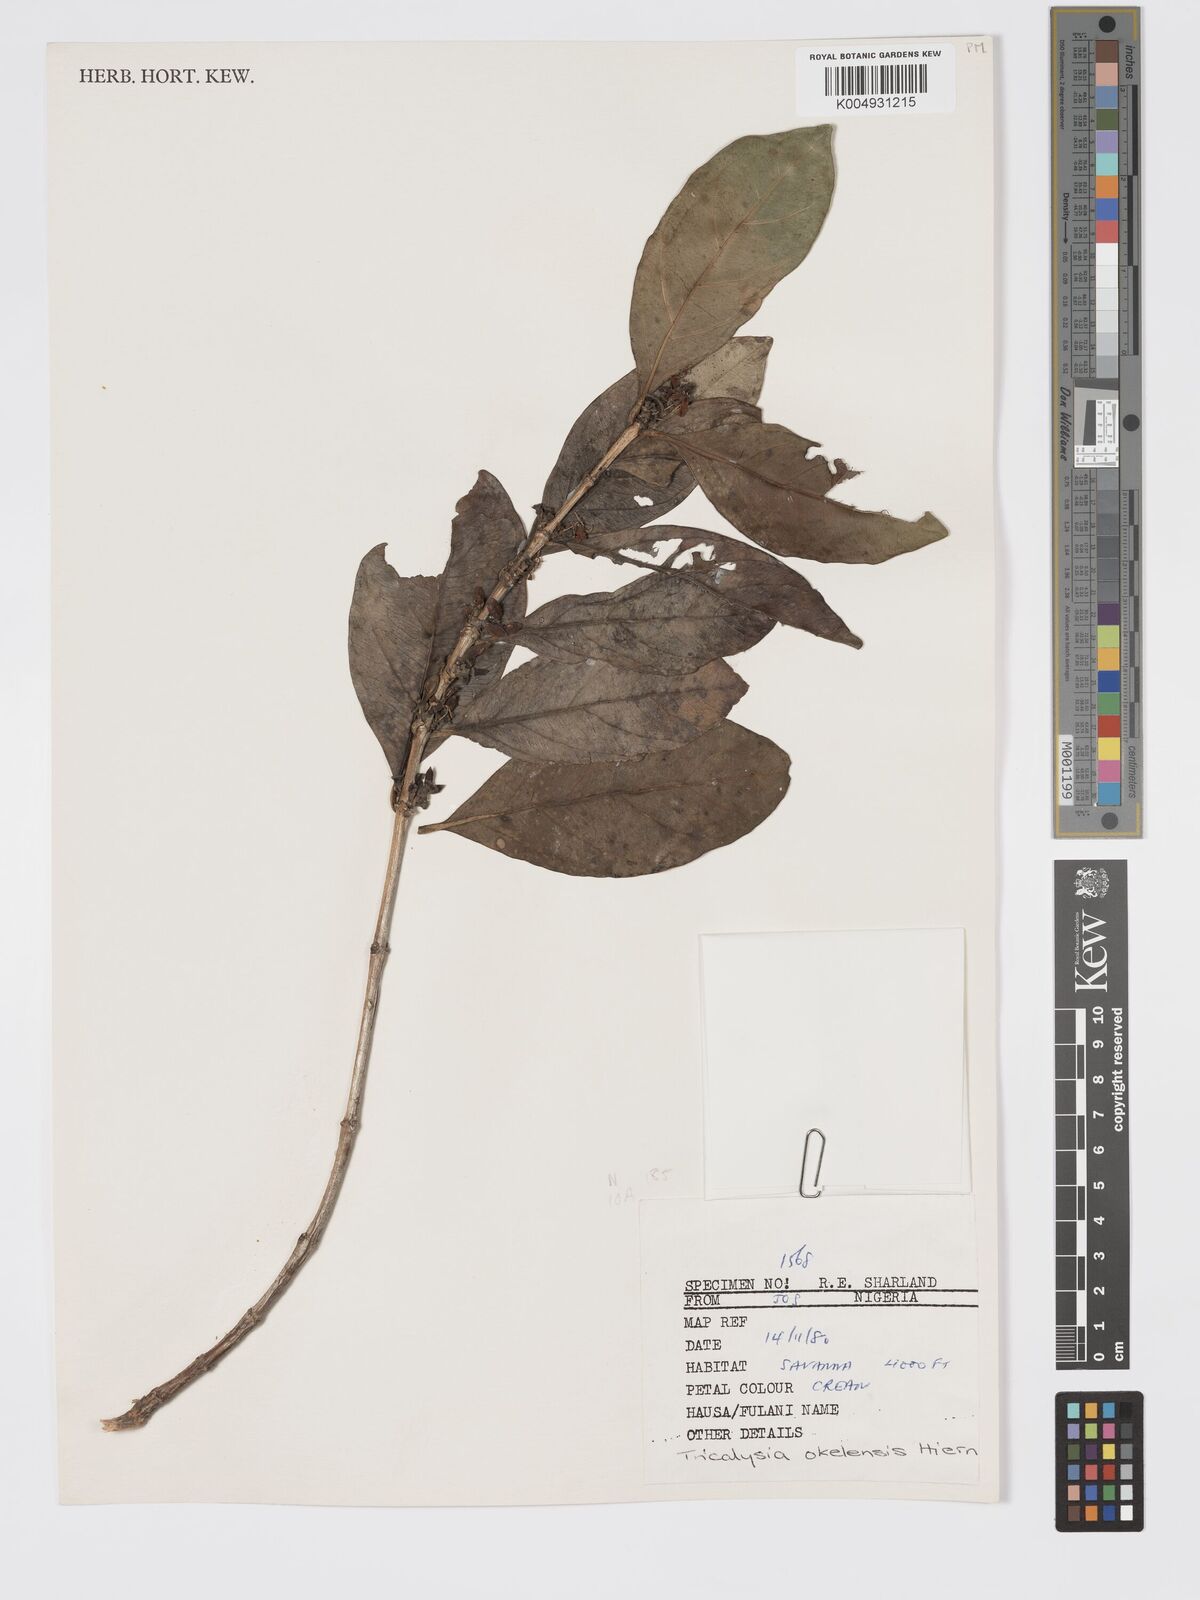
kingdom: Plantae
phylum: Tracheophyta
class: Magnoliopsida
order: Gentianales
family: Rubiaceae
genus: Tricalysia
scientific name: Tricalysia okelensis
